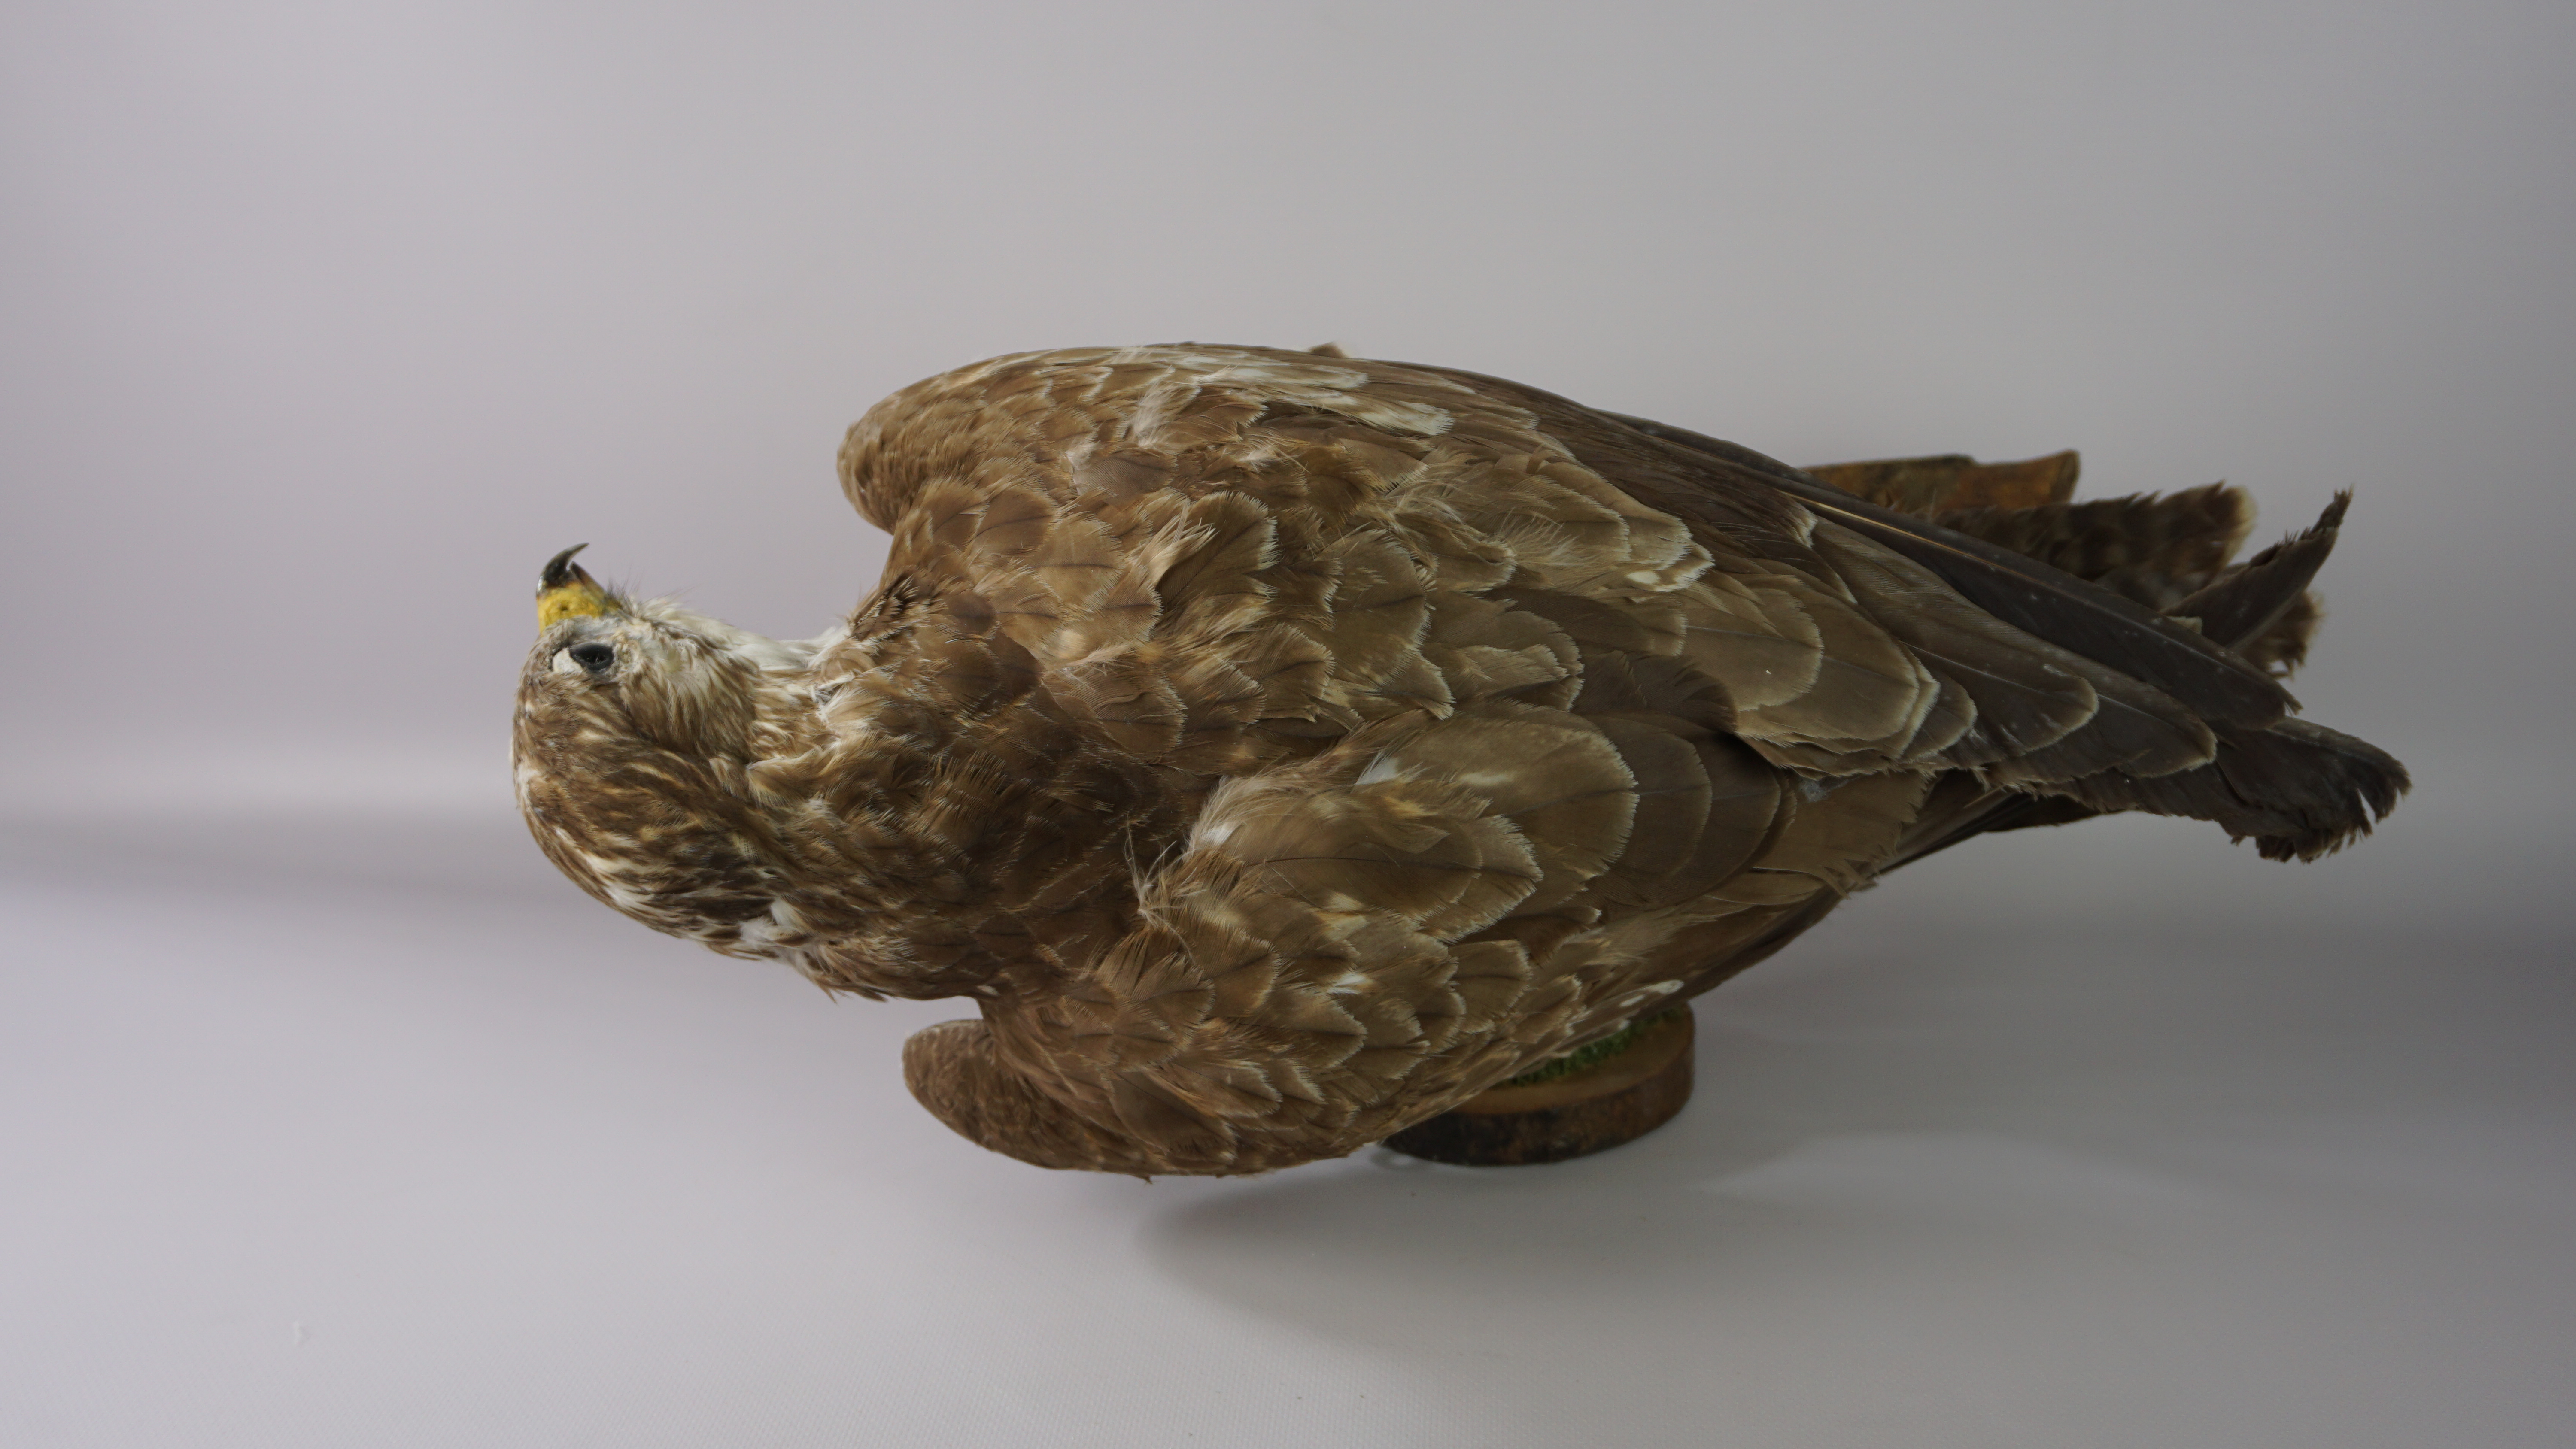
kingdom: Animalia
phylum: Chordata
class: Aves
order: Accipitriformes
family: Accipitridae
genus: Buteo
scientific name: Buteo buteo
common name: Common buzzard
